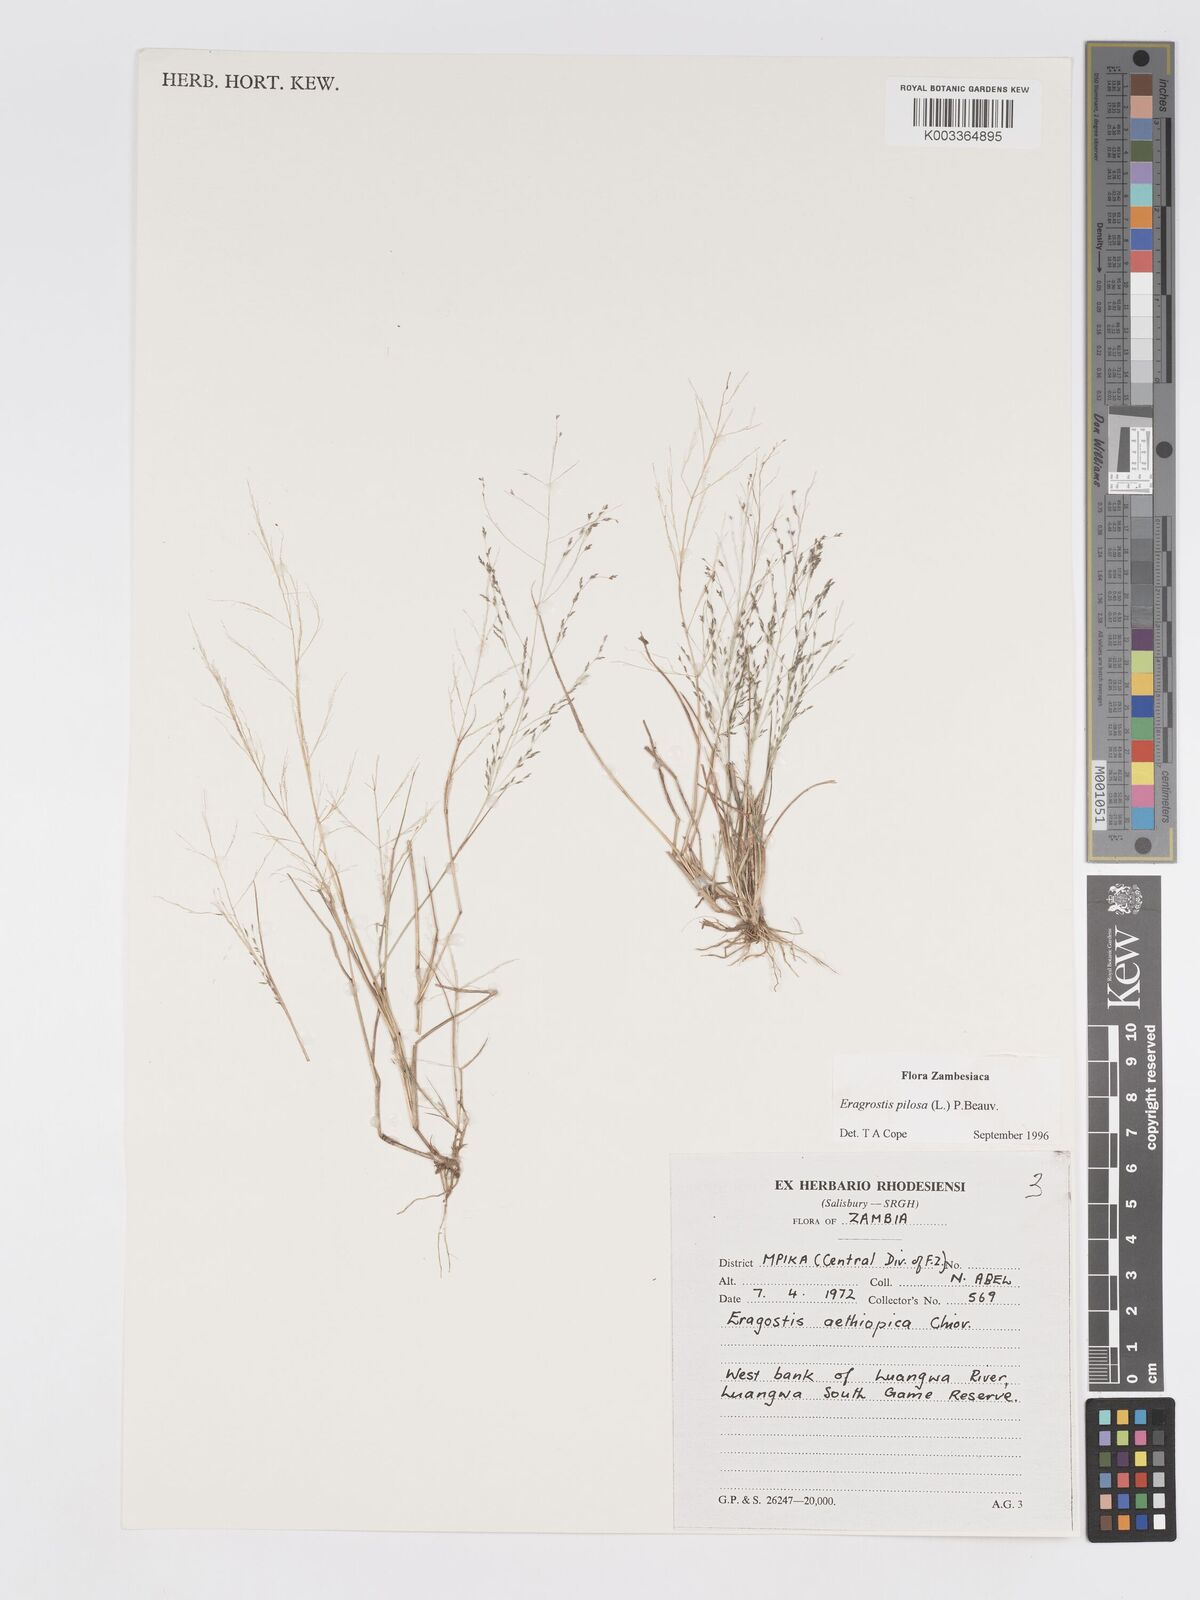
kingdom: Plantae
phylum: Tracheophyta
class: Liliopsida
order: Poales
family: Poaceae
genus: Eragrostis
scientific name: Eragrostis pilosa
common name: Indian lovegrass
